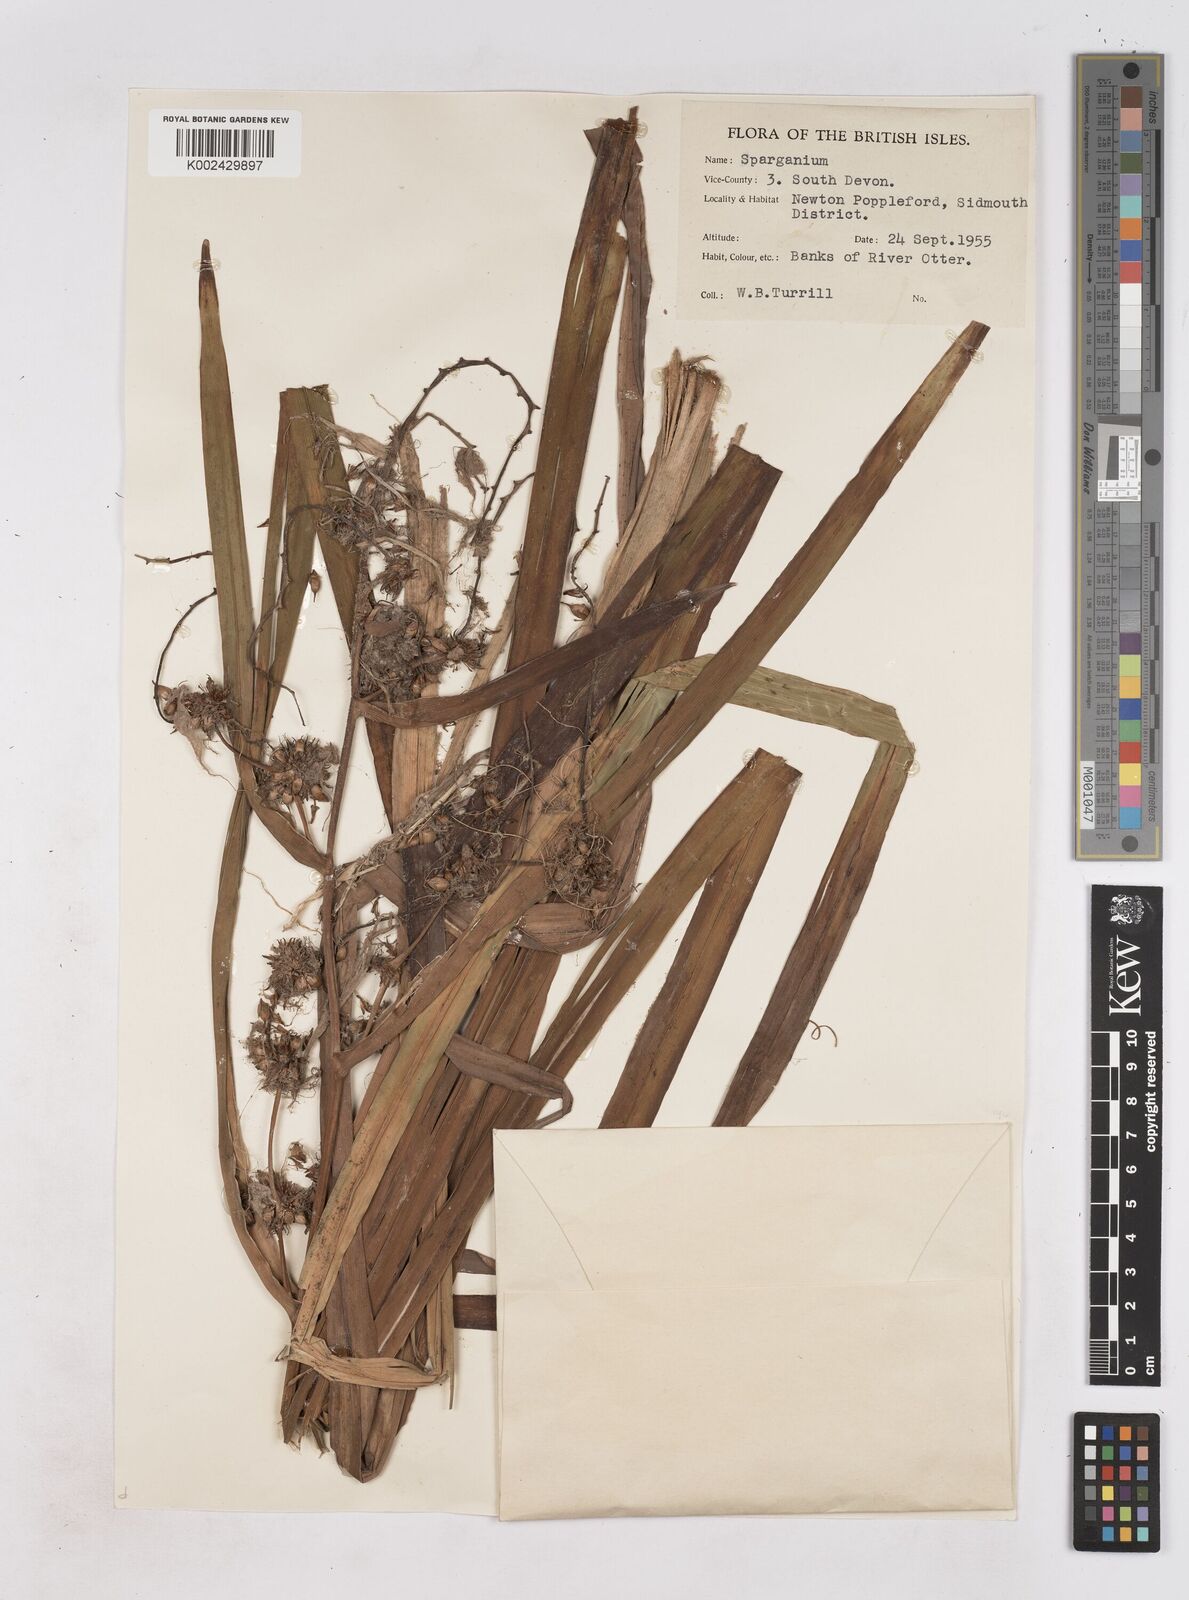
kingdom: Plantae
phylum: Tracheophyta
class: Liliopsida
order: Poales
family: Typhaceae
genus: Sparganium
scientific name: Sparganium erectum
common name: Branched bur-reed
